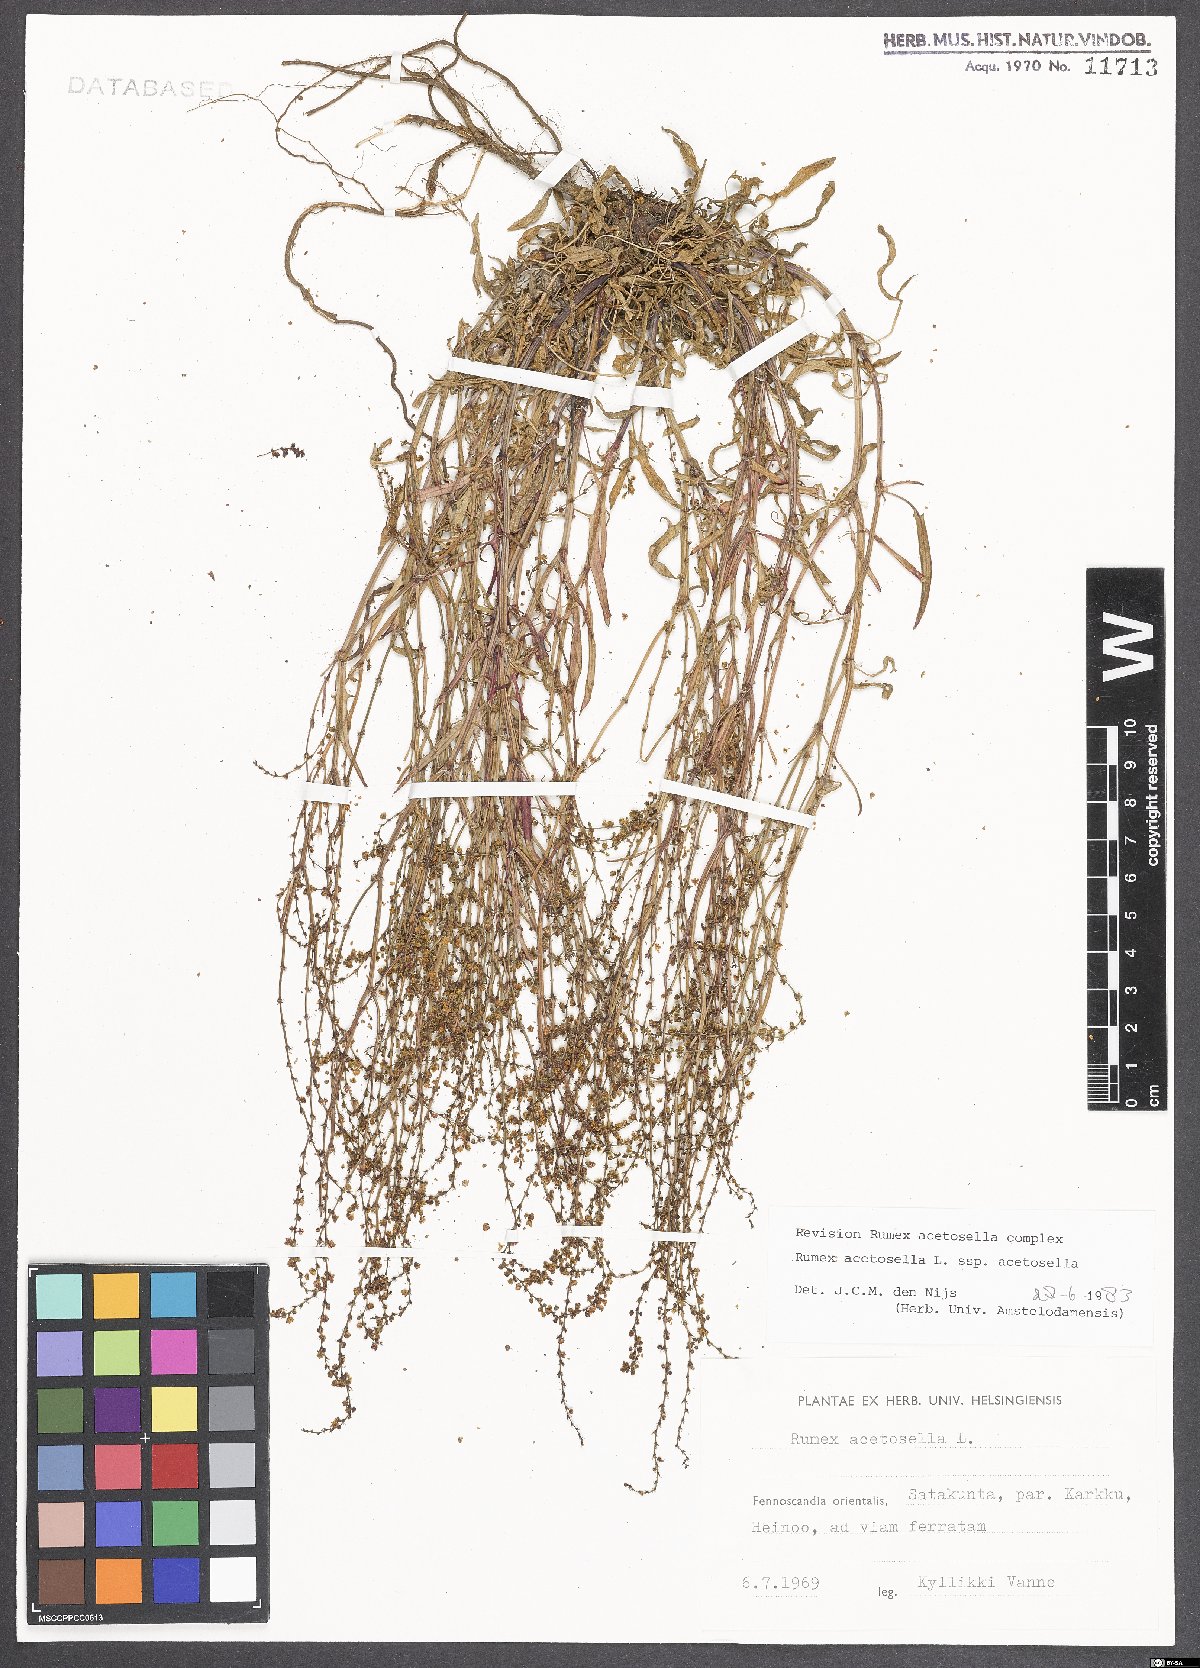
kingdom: Plantae
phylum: Tracheophyta
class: Magnoliopsida
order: Caryophyllales
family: Polygonaceae
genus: Rumex
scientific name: Rumex acetosella
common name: Common sheep sorrel
